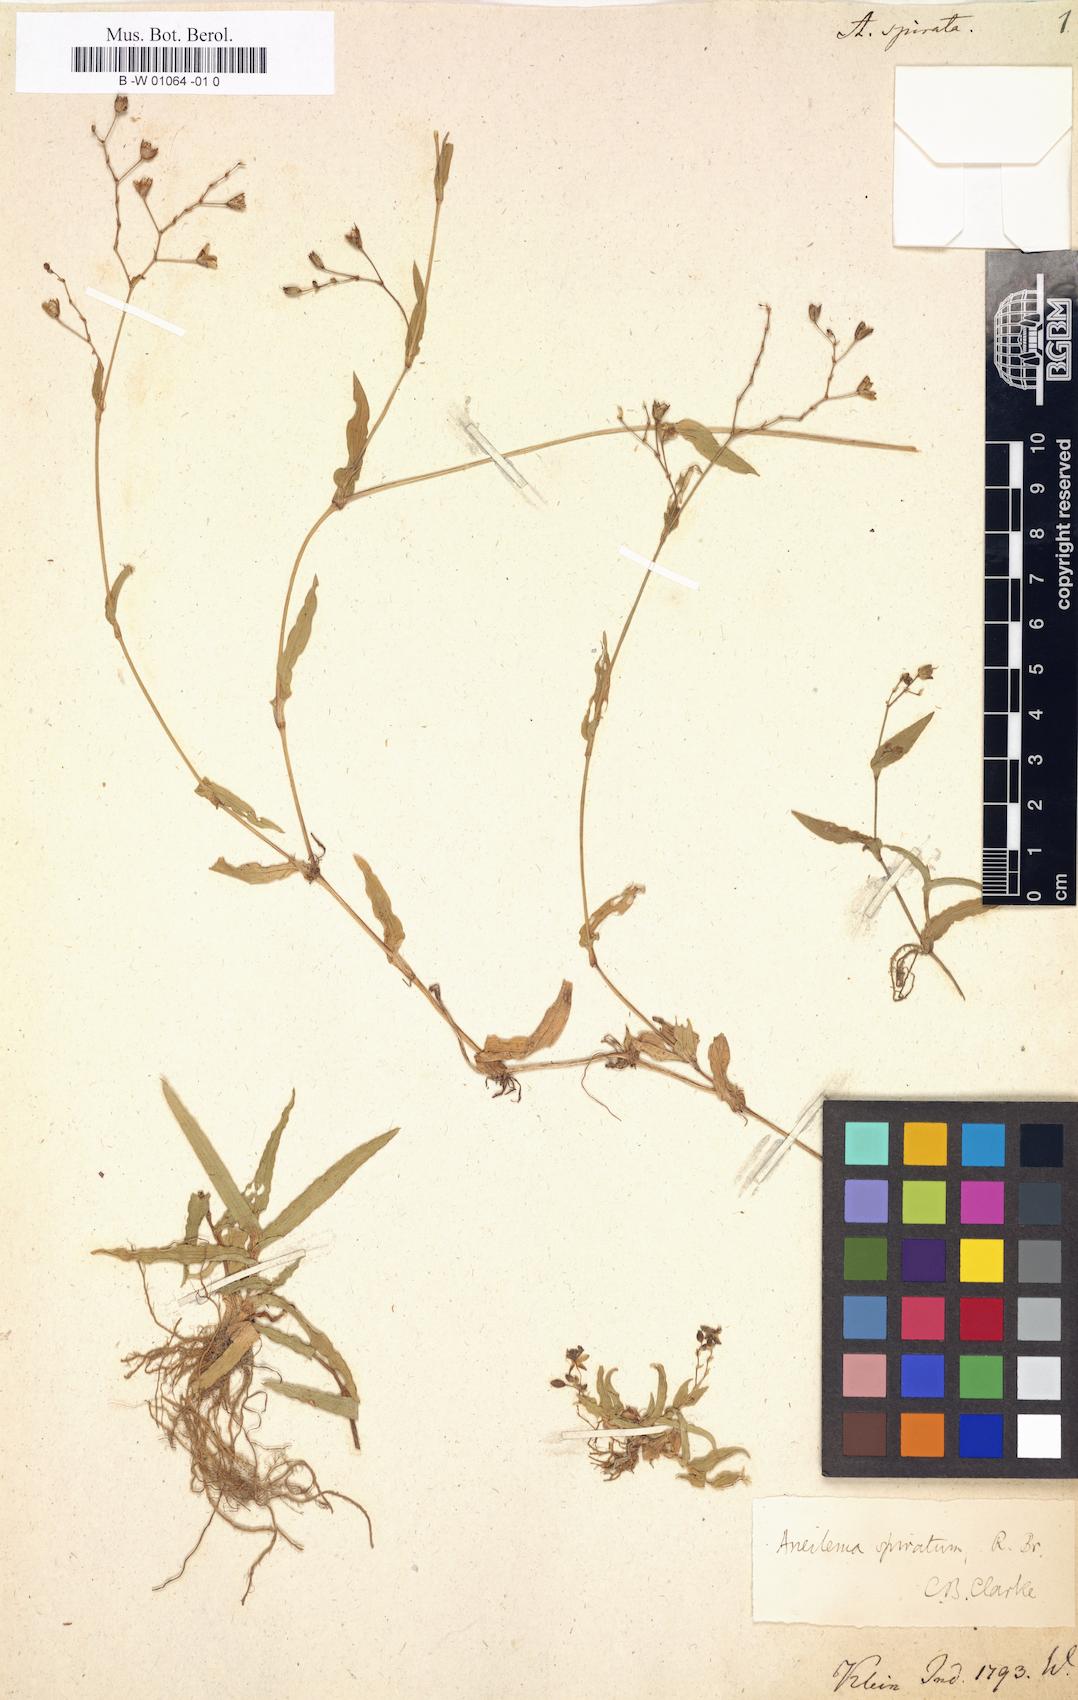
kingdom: Plantae
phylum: Tracheophyta
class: Liliopsida
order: Commelinales
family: Commelinaceae
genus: Murdannia
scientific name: Murdannia spirata
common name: Asiatic dewflower
